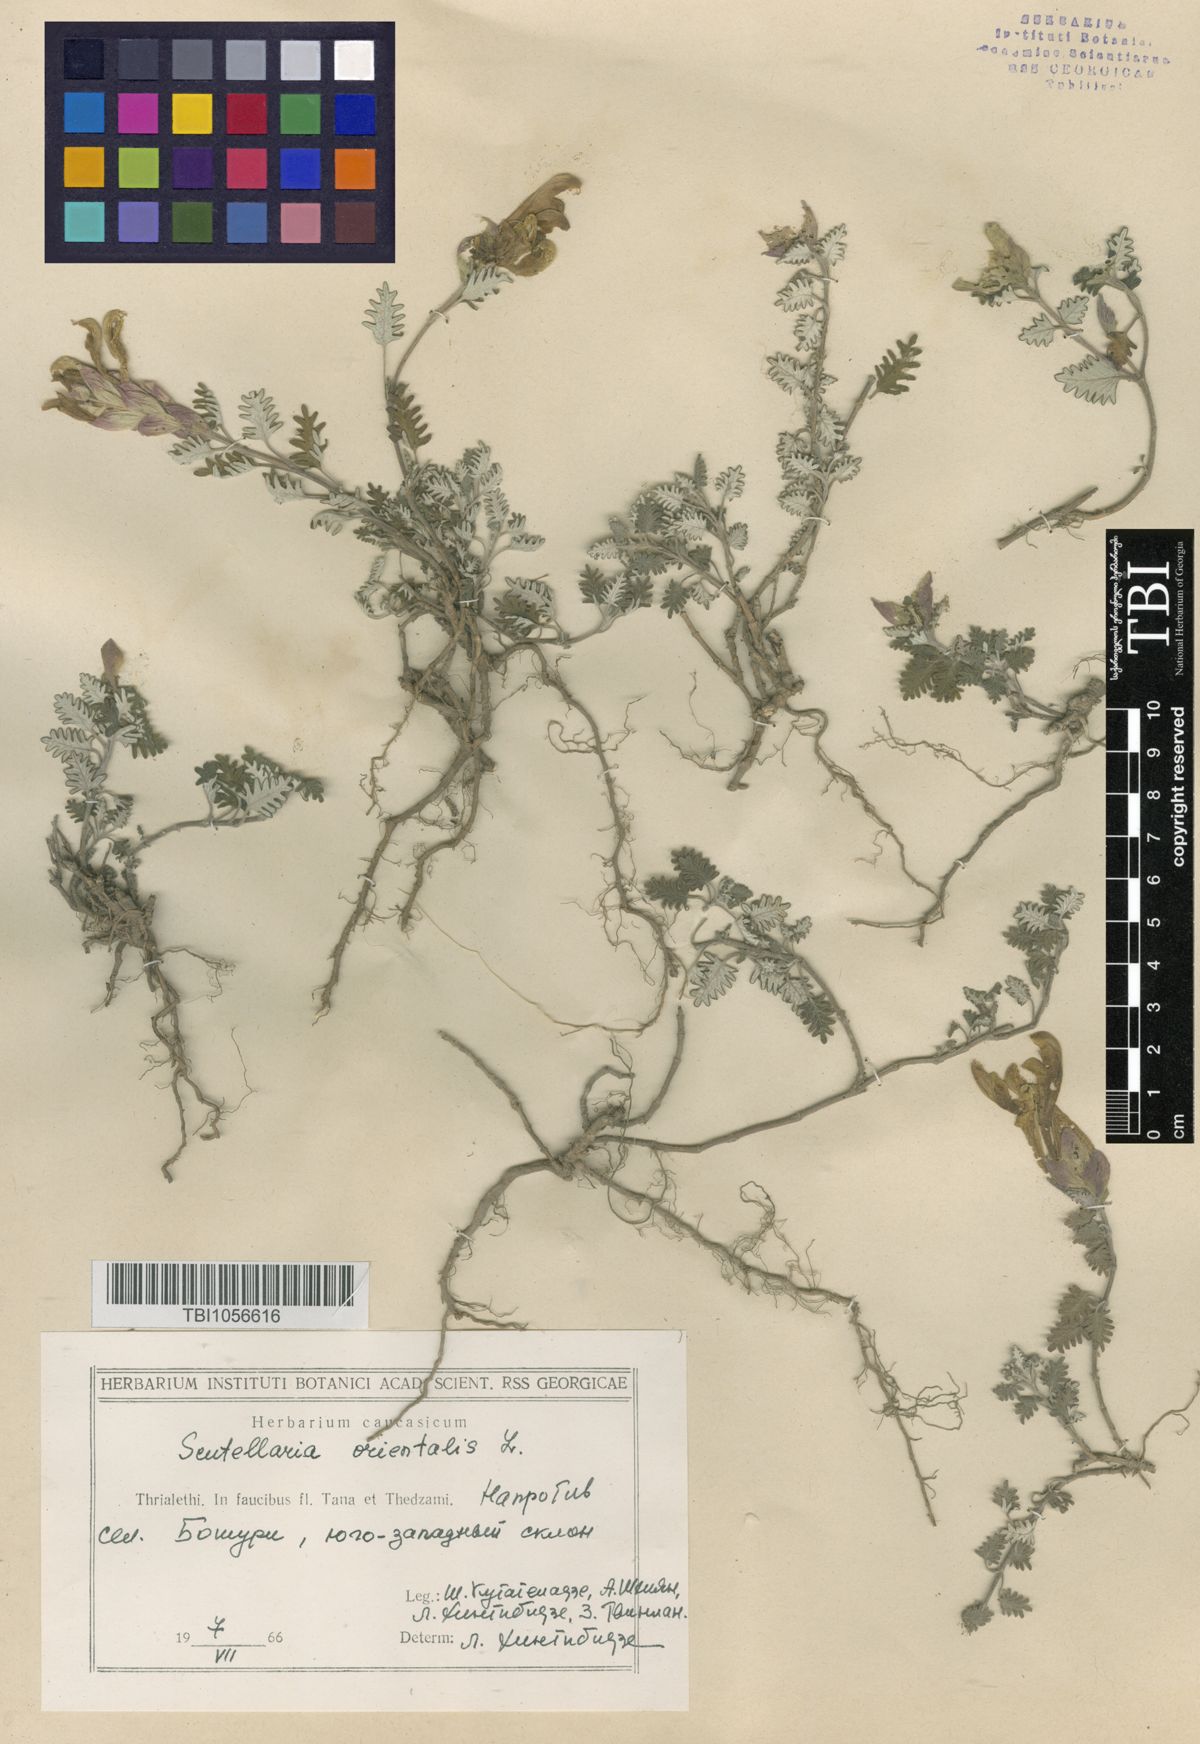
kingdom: Plantae
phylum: Tracheophyta
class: Magnoliopsida
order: Lamiales
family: Lamiaceae
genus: Scutellaria
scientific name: Scutellaria orientalis
